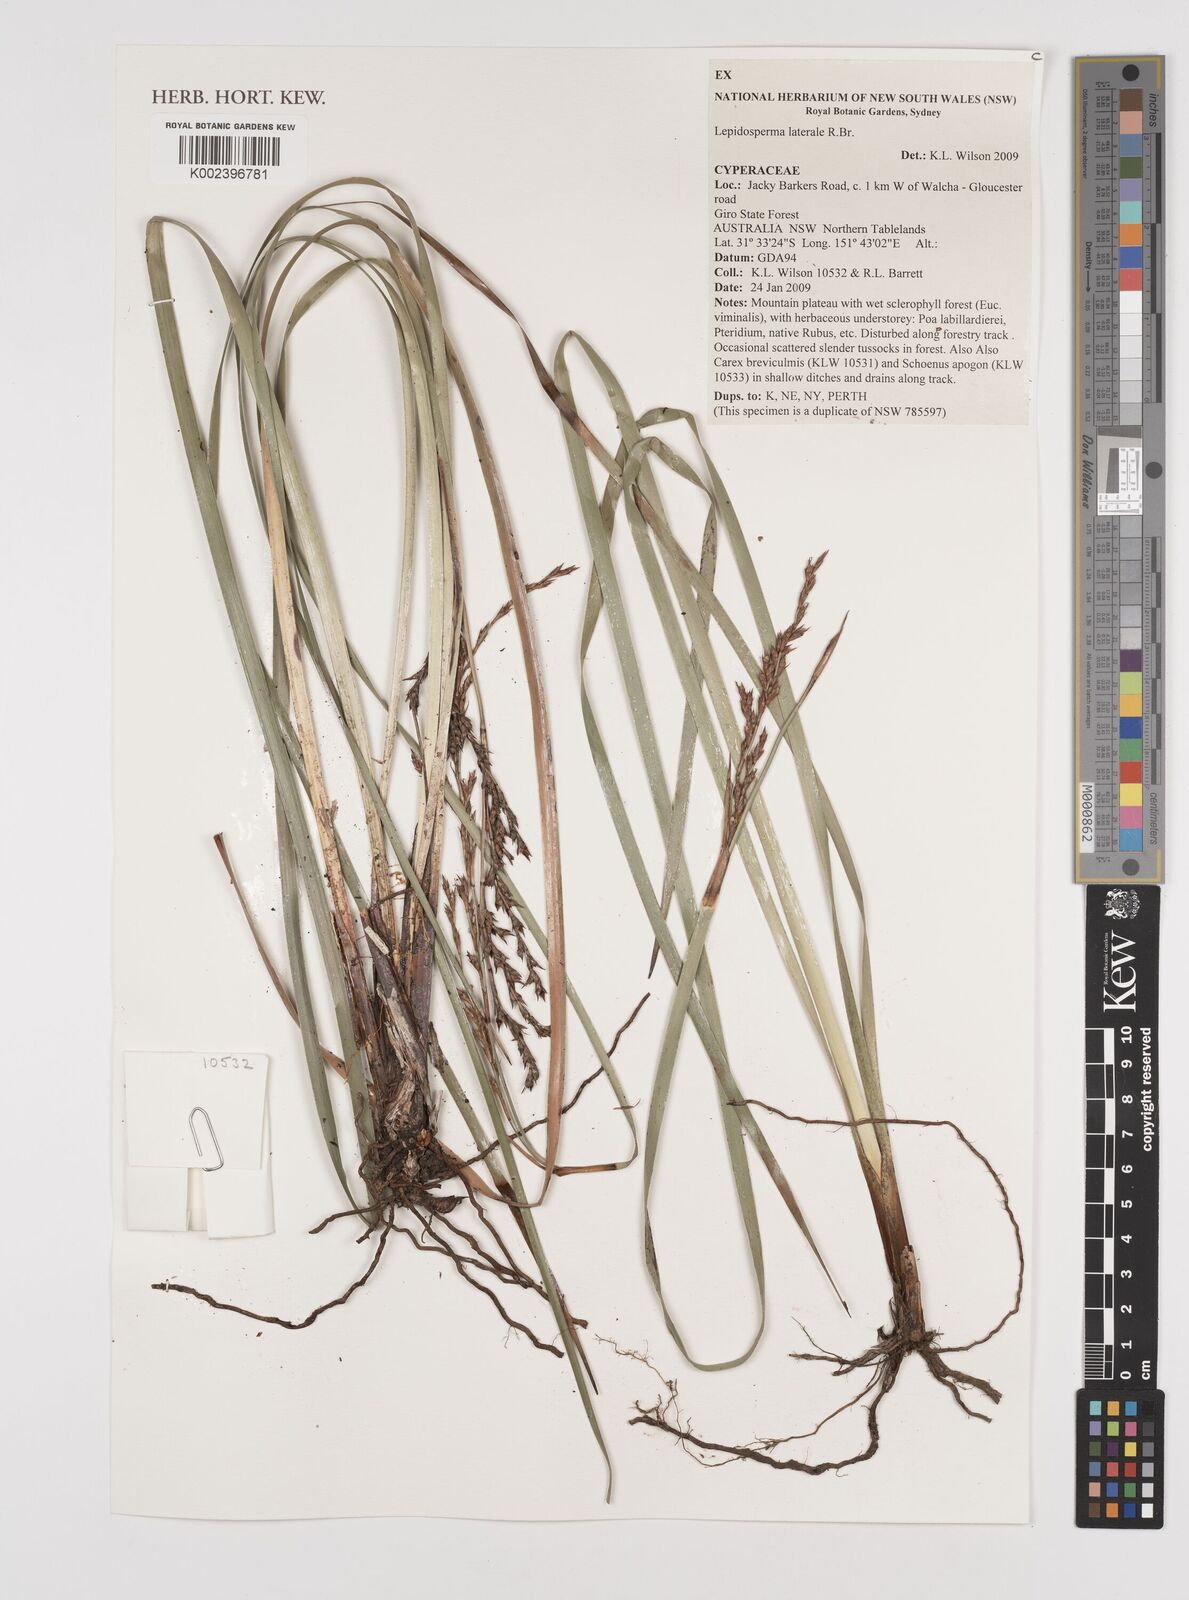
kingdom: Plantae
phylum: Tracheophyta
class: Liliopsida
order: Poales
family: Cyperaceae
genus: Lepidosperma
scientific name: Lepidosperma laterale
